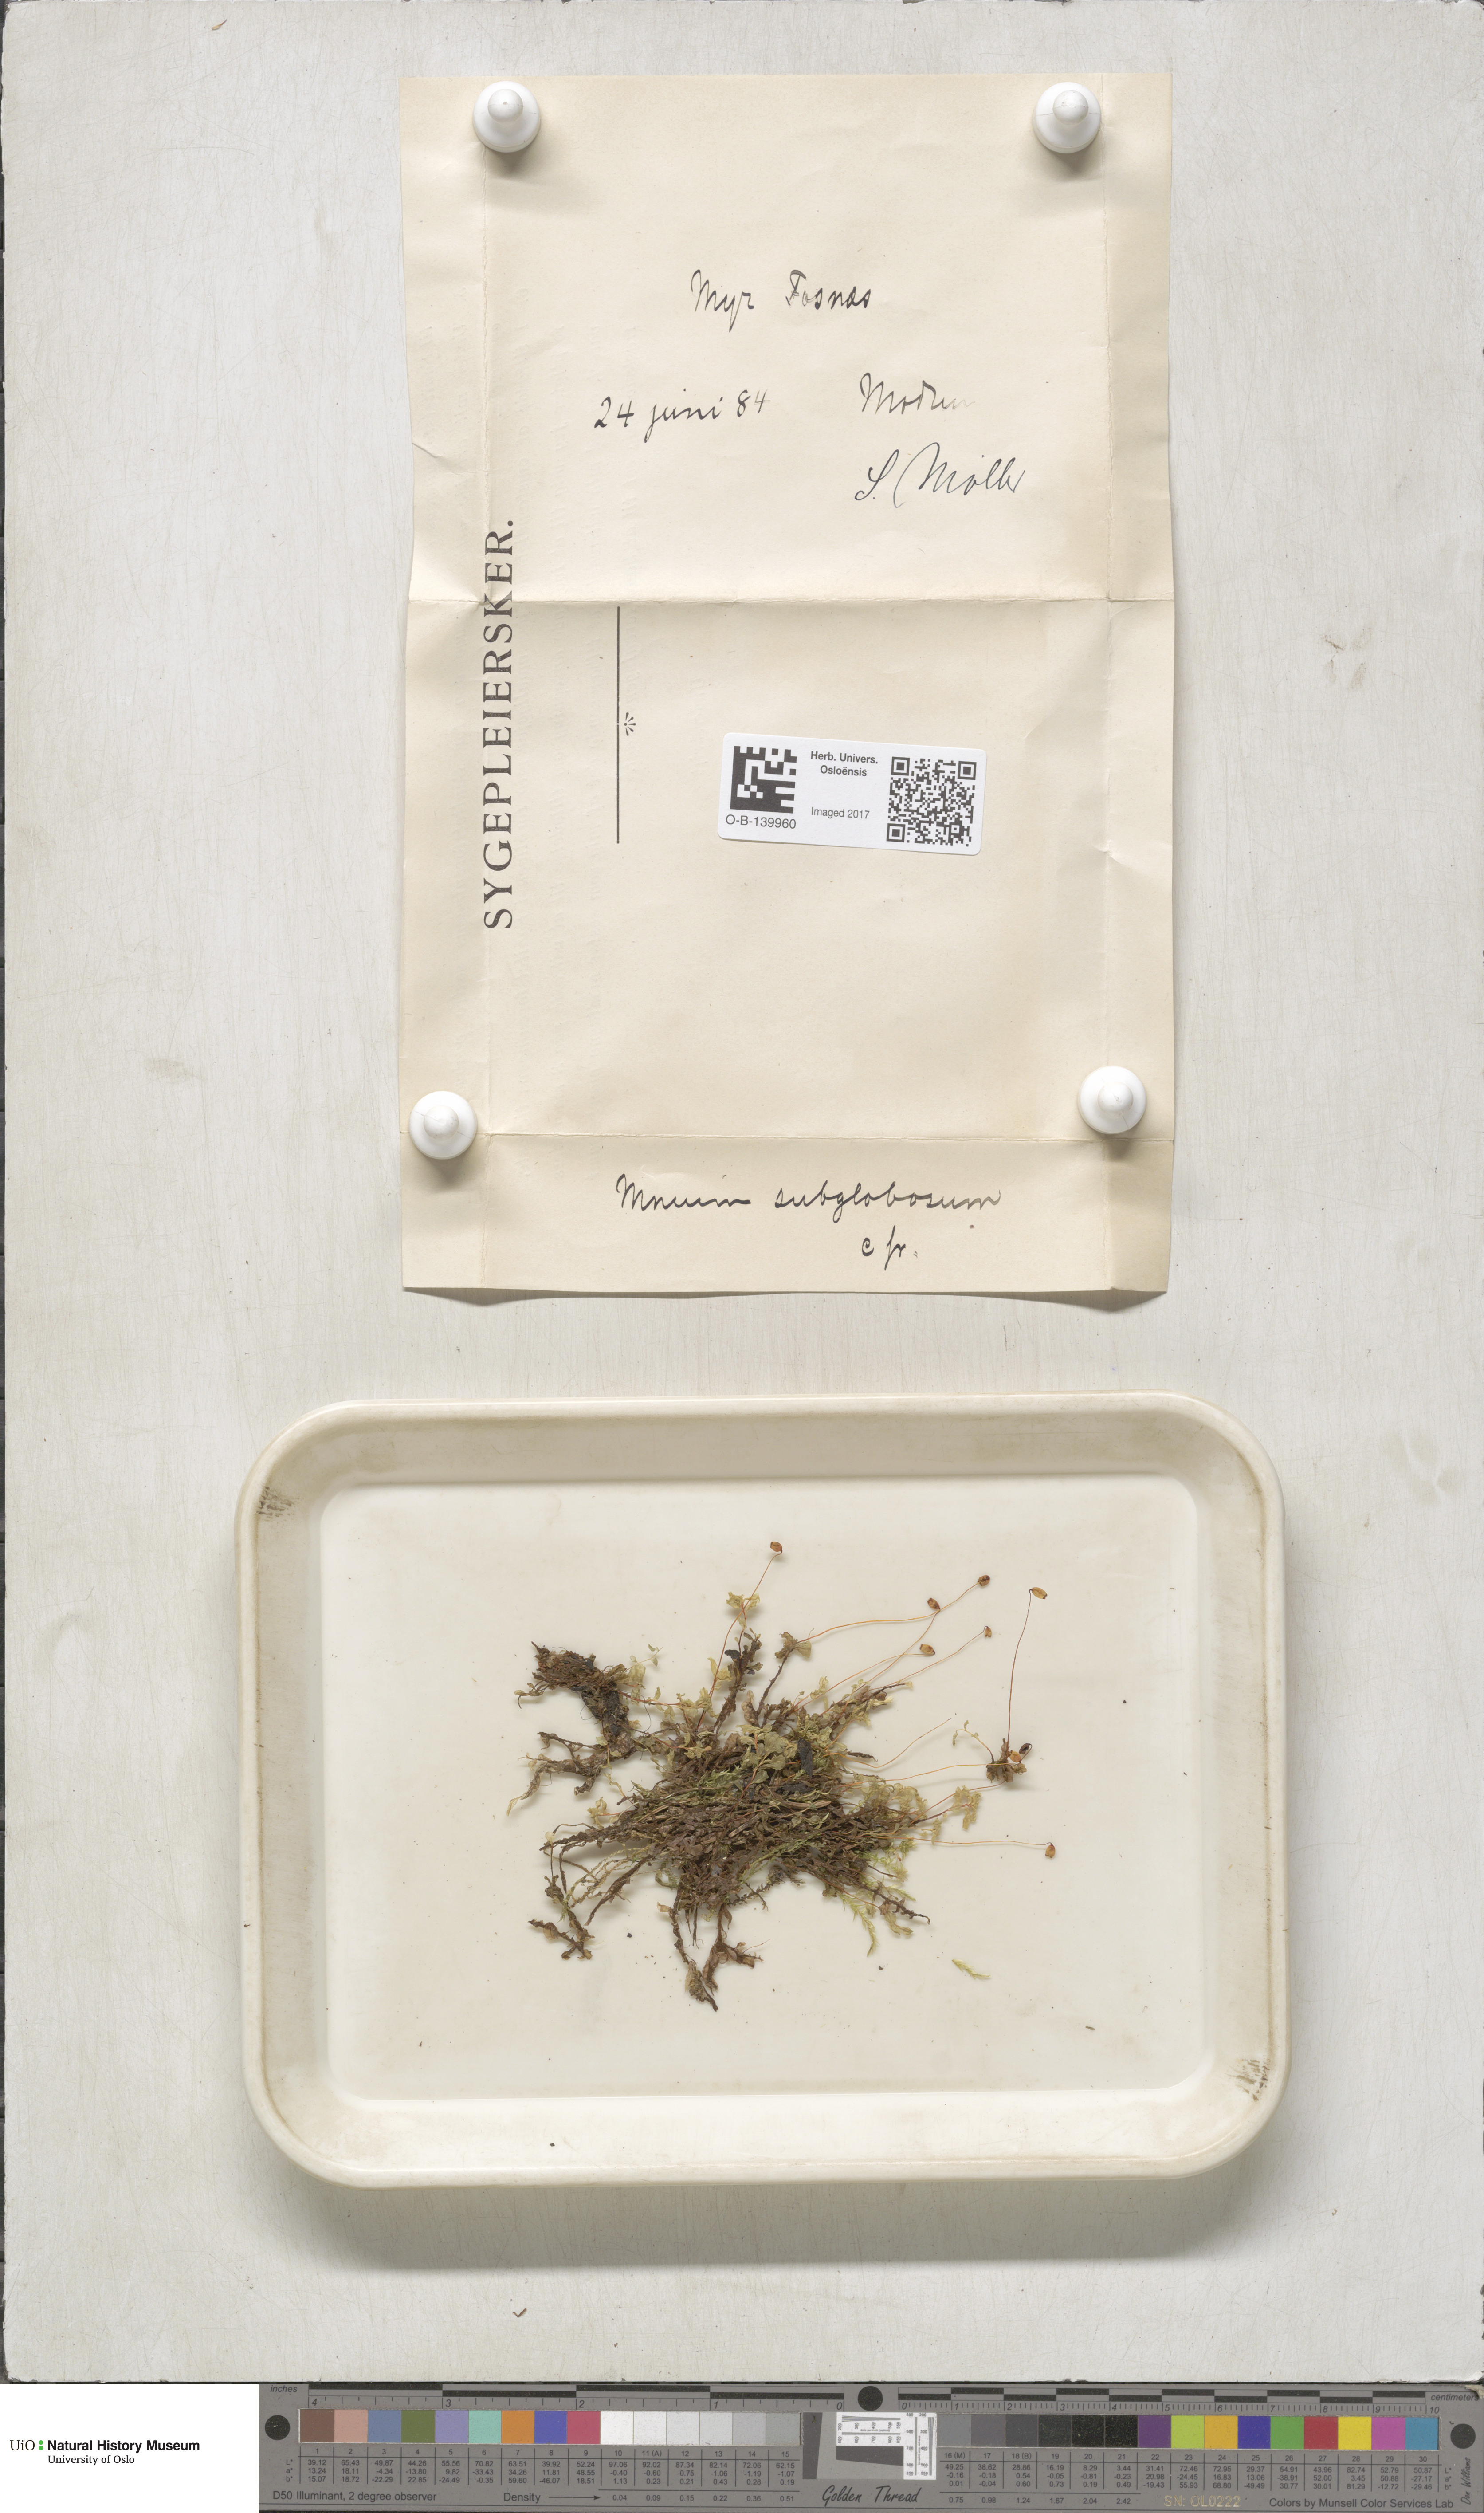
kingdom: Plantae
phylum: Bryophyta
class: Bryopsida
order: Bryales
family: Mniaceae
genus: Rhizomnium
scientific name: Rhizomnium pseudopunctatum
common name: Felted leafy moss
